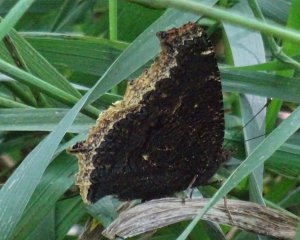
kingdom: Animalia
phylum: Arthropoda
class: Insecta
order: Lepidoptera
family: Nymphalidae
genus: Nymphalis
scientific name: Nymphalis antiopa
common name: Mourning Cloak
